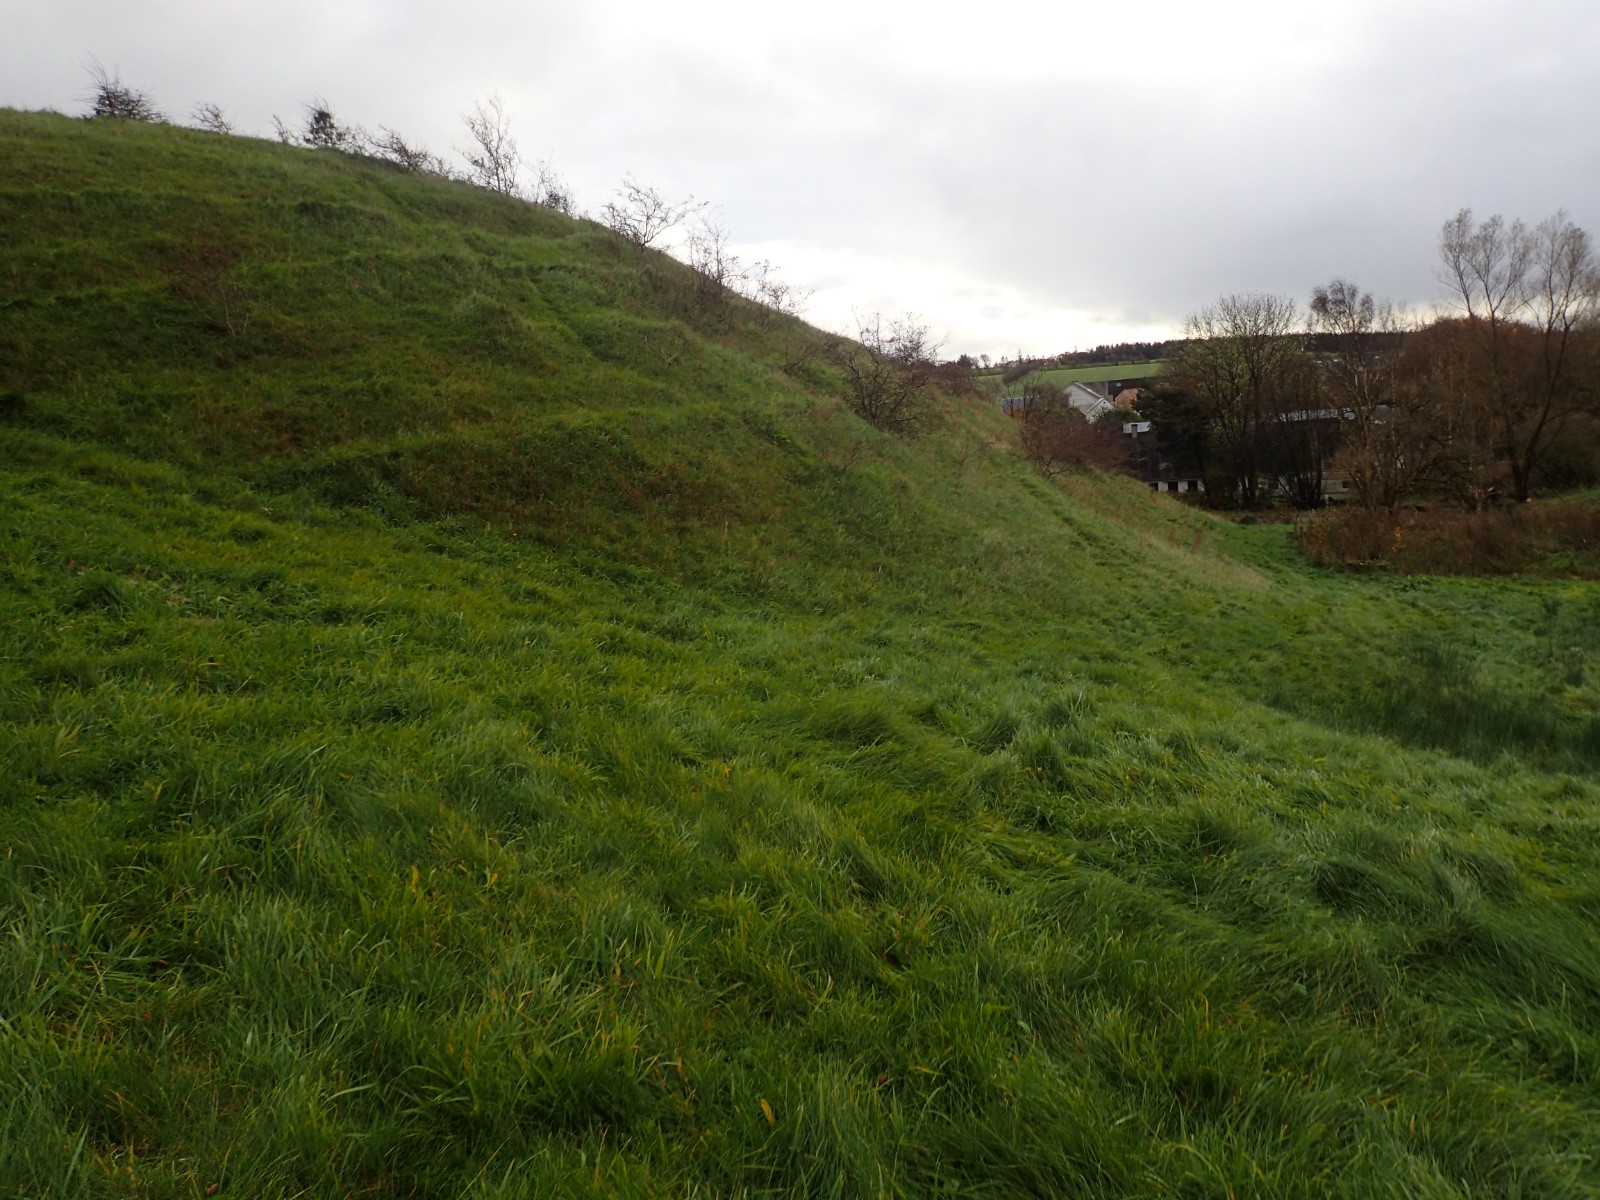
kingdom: Fungi
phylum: Basidiomycota
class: Agaricomycetes
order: Agaricales
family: Hygrophoraceae
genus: Cuphophyllus
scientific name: Cuphophyllus pratensis
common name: eng-vokshat
